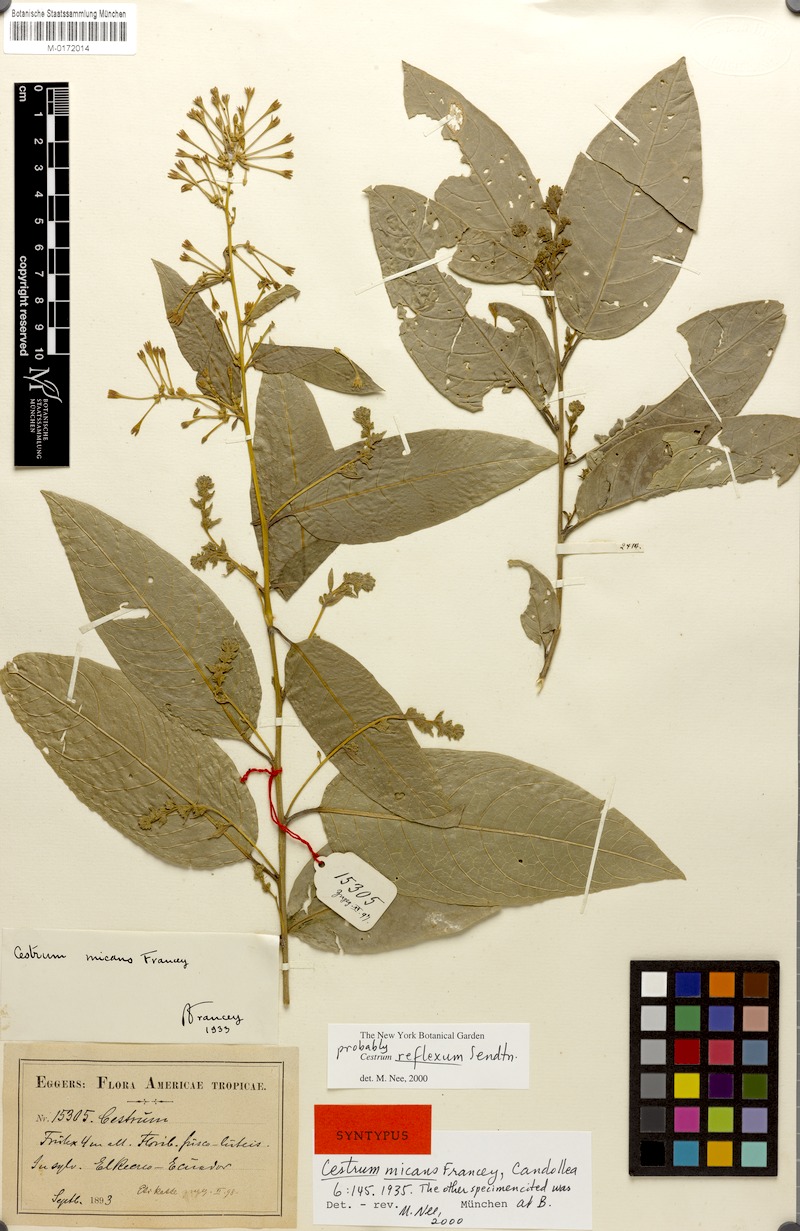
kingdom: Plantae
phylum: Tracheophyta
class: Magnoliopsida
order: Solanales
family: Solanaceae
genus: Cestrum
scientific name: Cestrum reflexum
